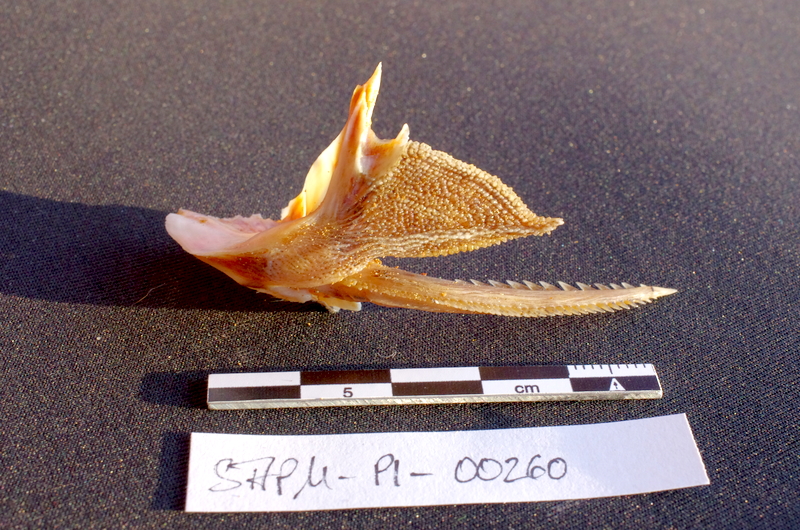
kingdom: Animalia
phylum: Chordata
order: Siluriformes
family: Mochokidae
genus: Synodontis
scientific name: Synodontis nigrita
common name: Catfish
